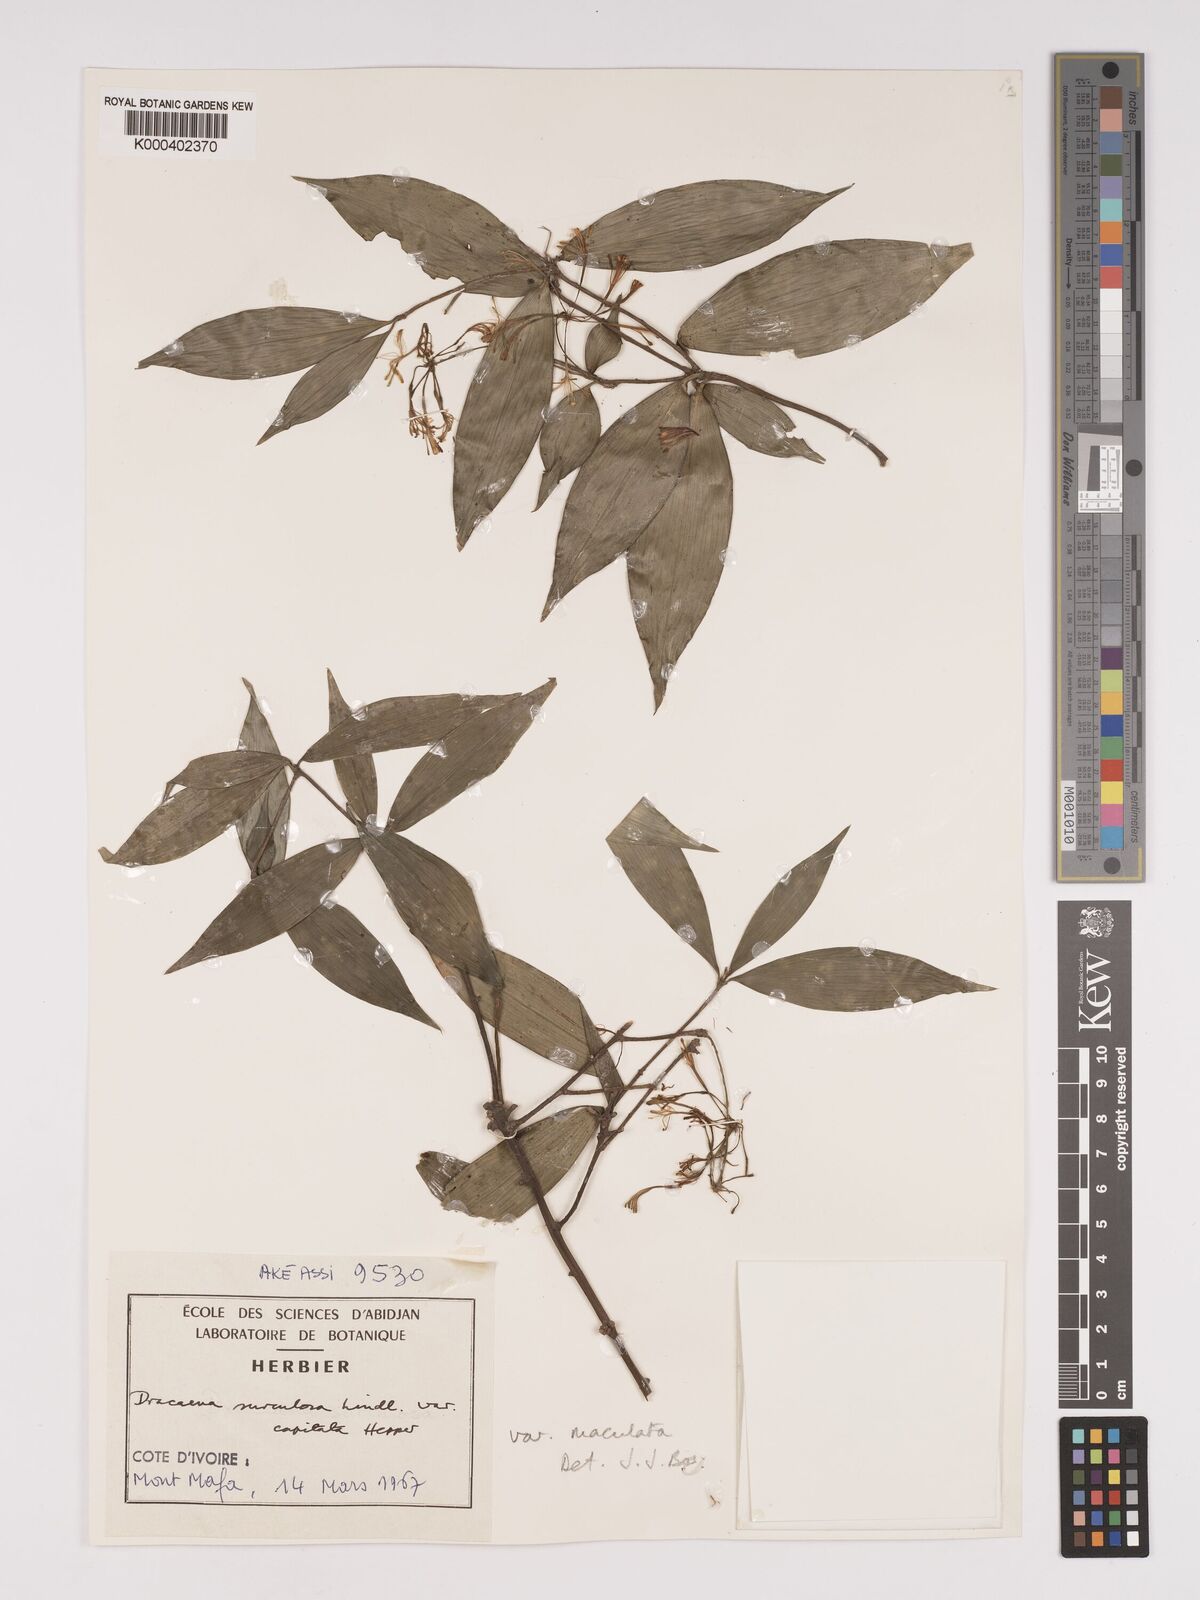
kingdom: Plantae
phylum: Tracheophyta
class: Liliopsida
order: Asparagales
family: Asparagaceae
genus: Dracaena
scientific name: Dracaena surculosa
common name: Spotted dracaena
